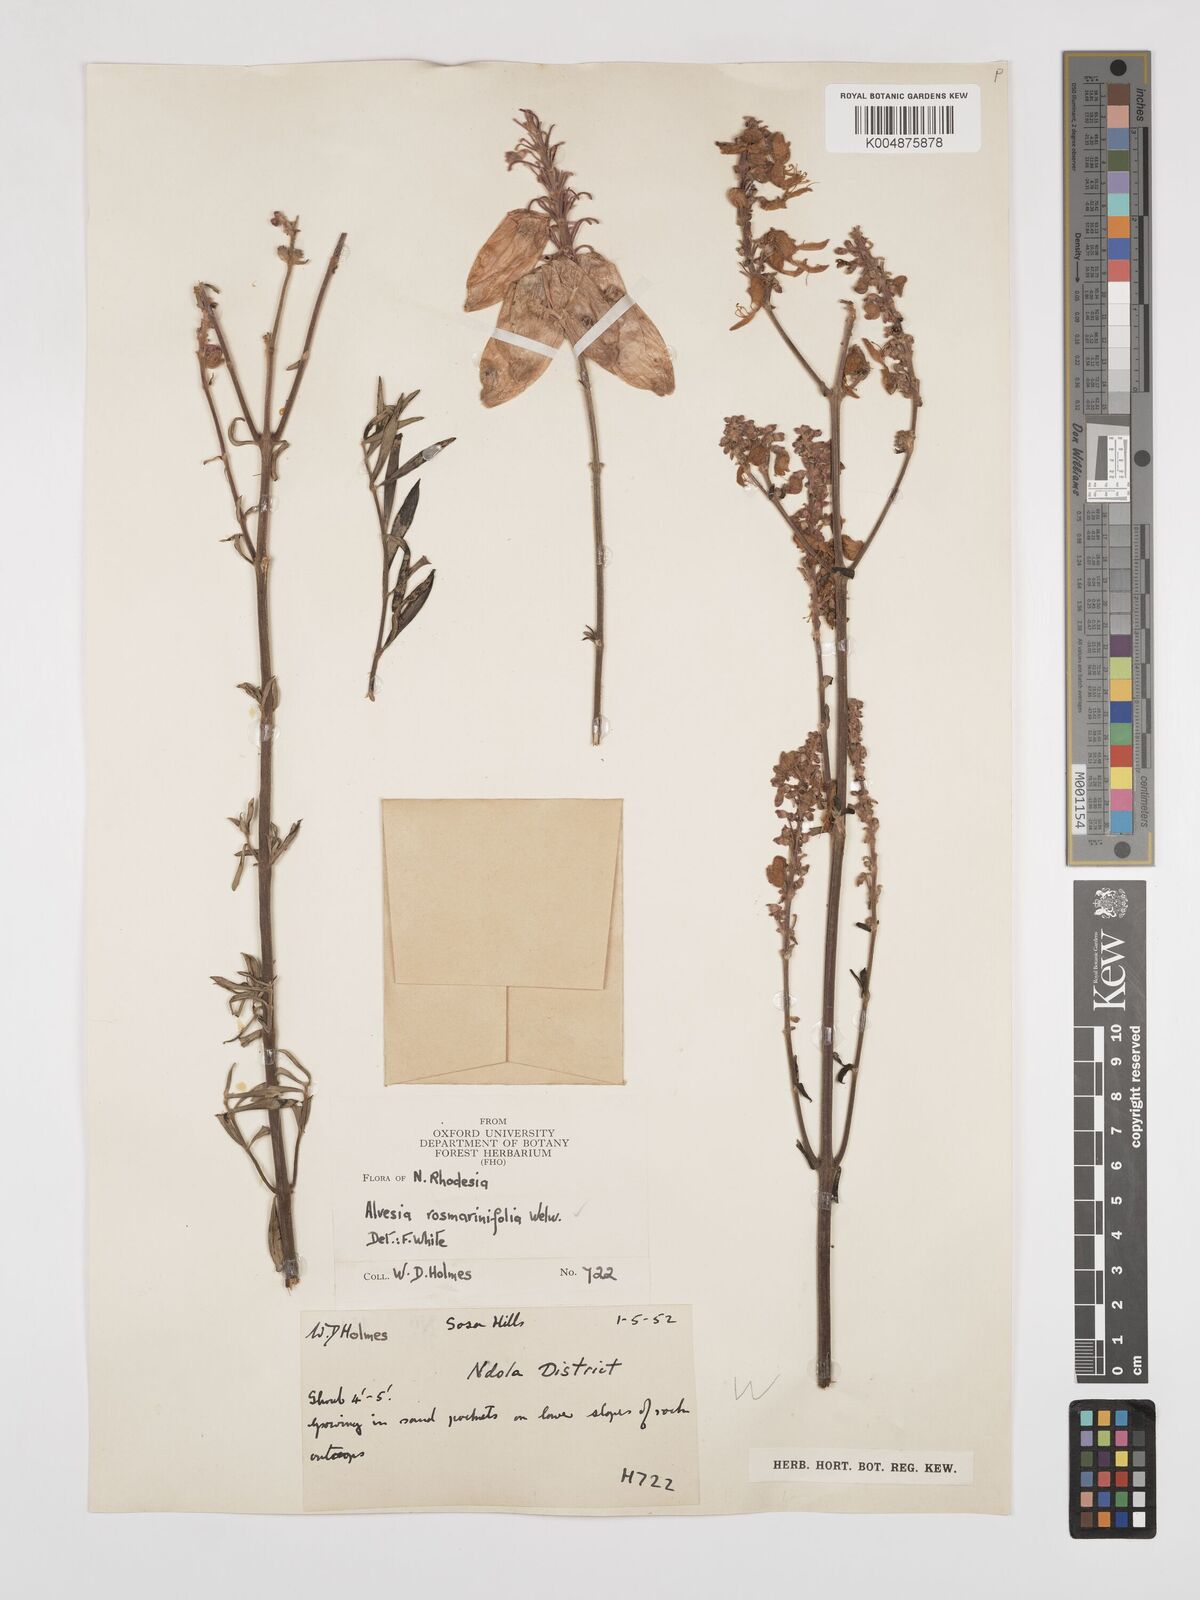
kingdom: Plantae
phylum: Tracheophyta
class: Magnoliopsida
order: Lamiales
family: Lamiaceae
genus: Alvesia
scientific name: Alvesia rosmarinifolia
